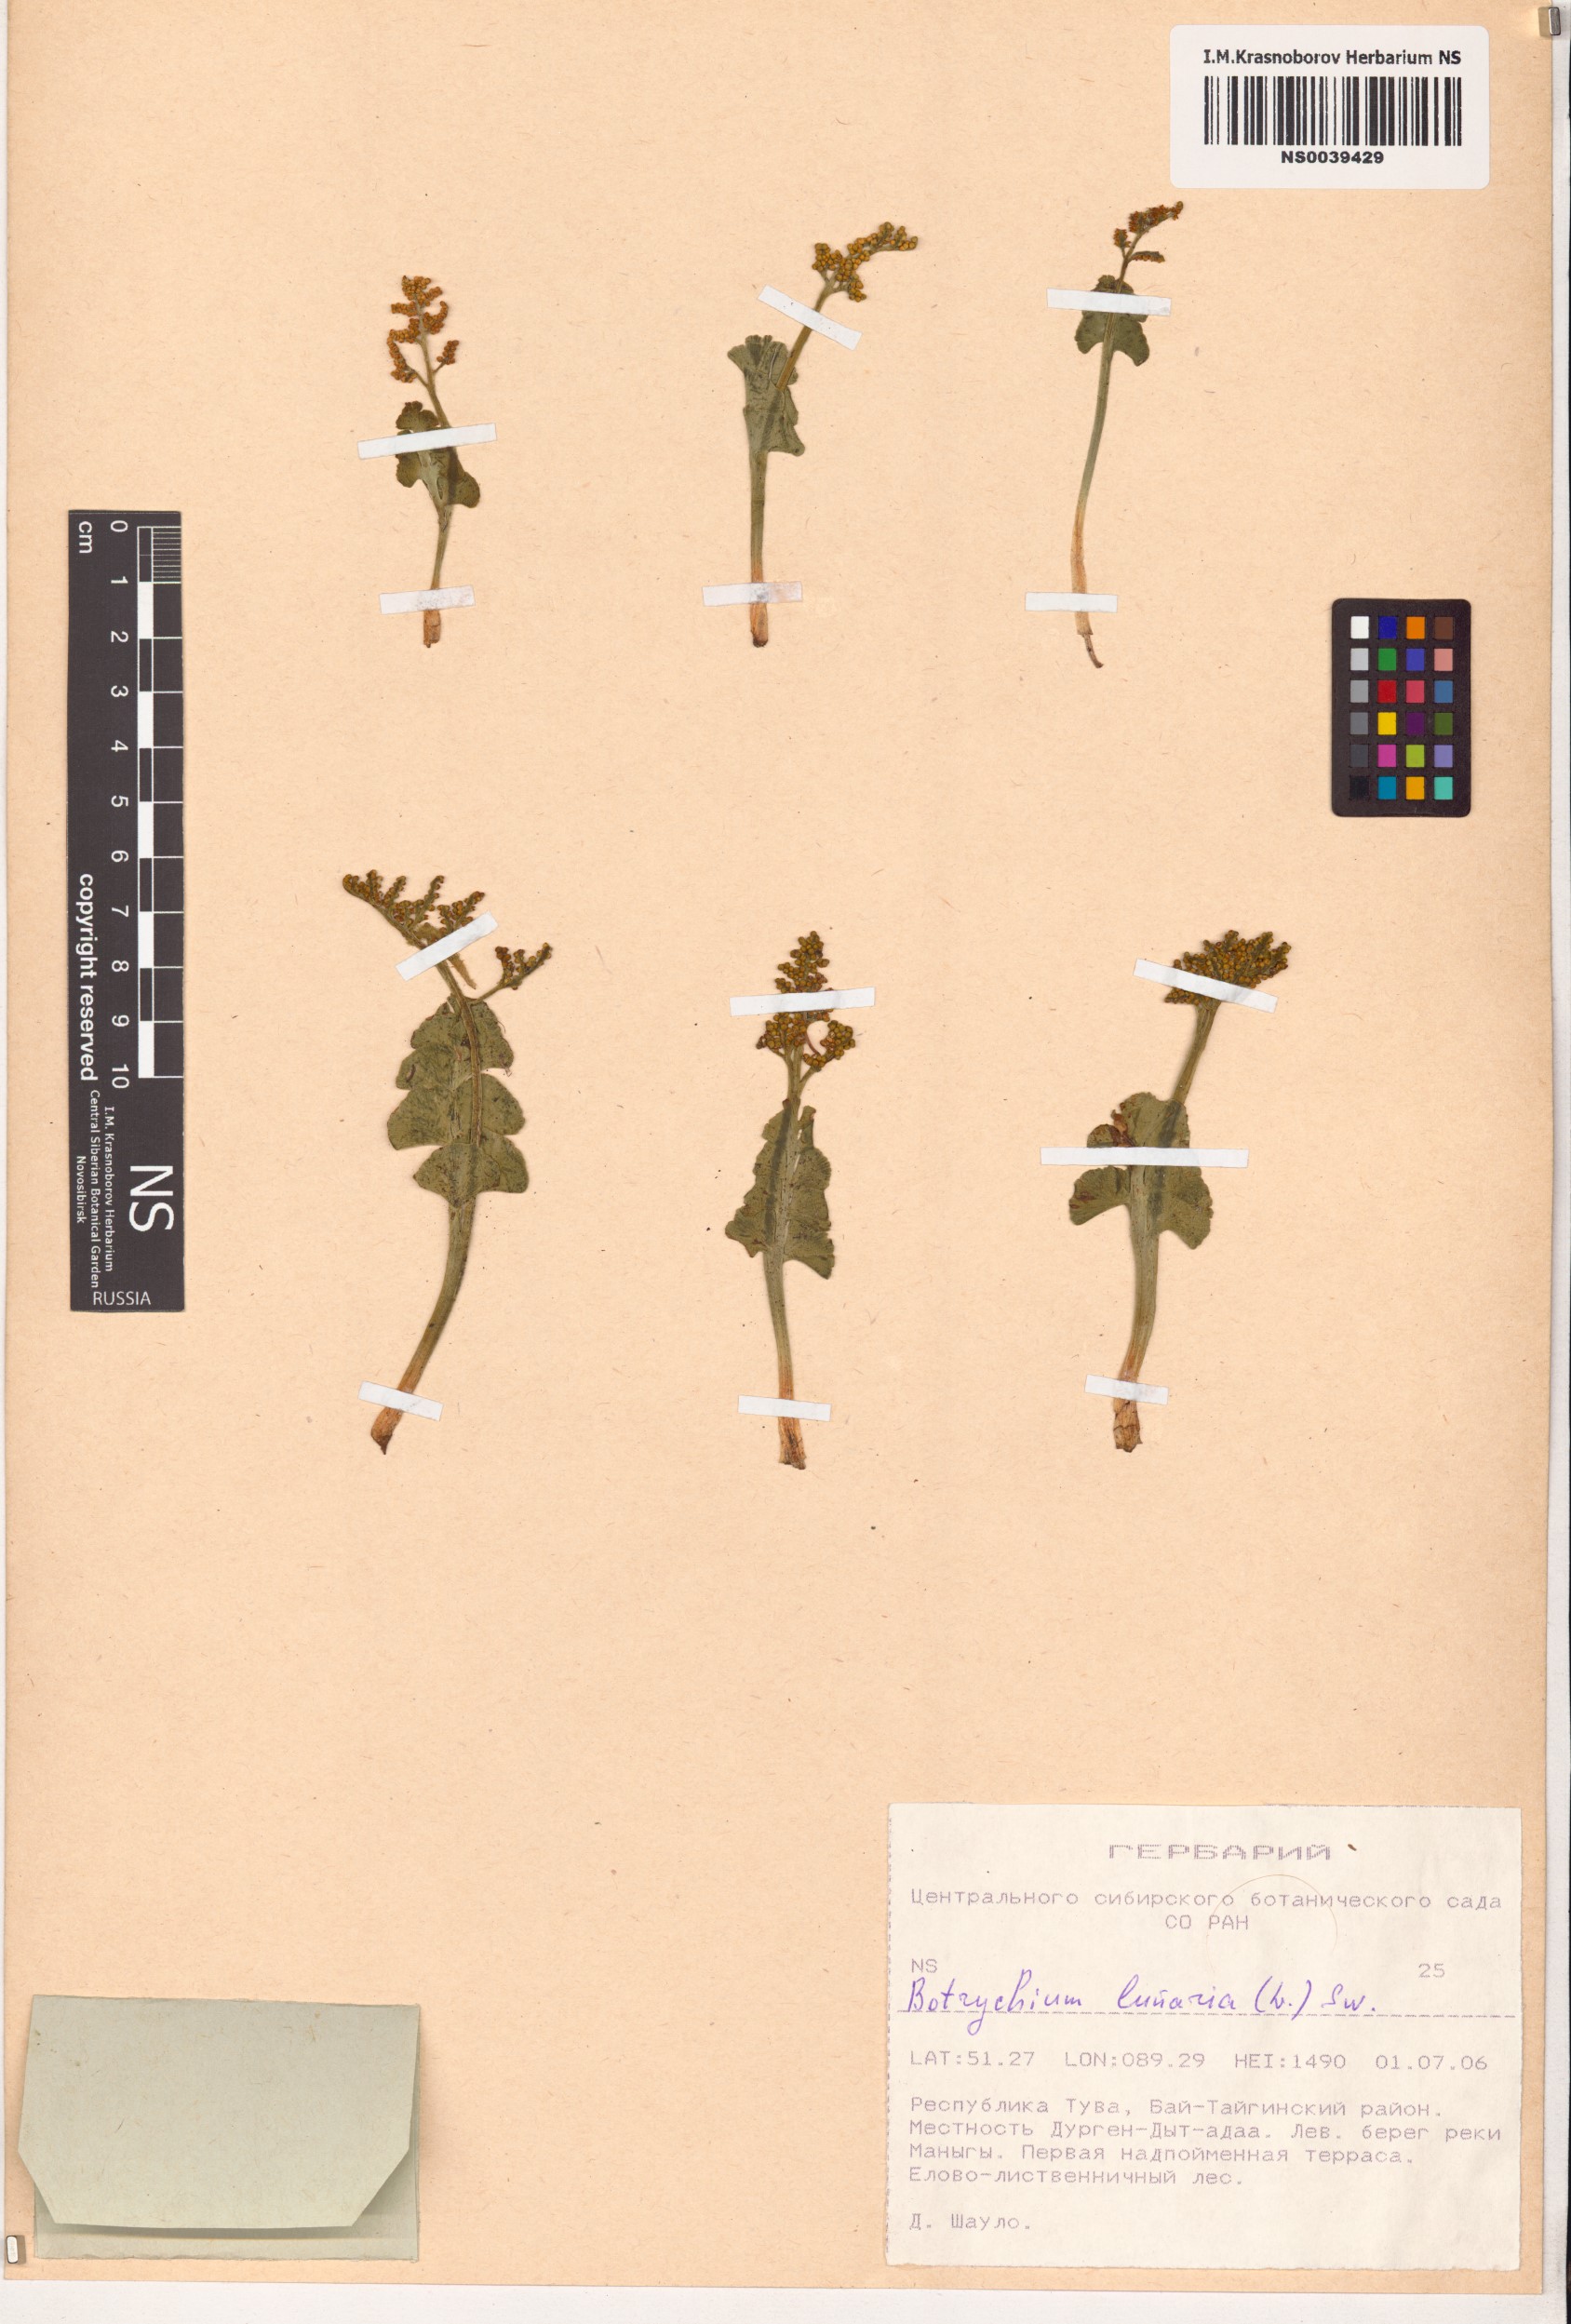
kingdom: Plantae
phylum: Tracheophyta
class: Polypodiopsida
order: Ophioglossales
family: Ophioglossaceae
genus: Botrychium
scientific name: Botrychium lunaria
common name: Moonwort
